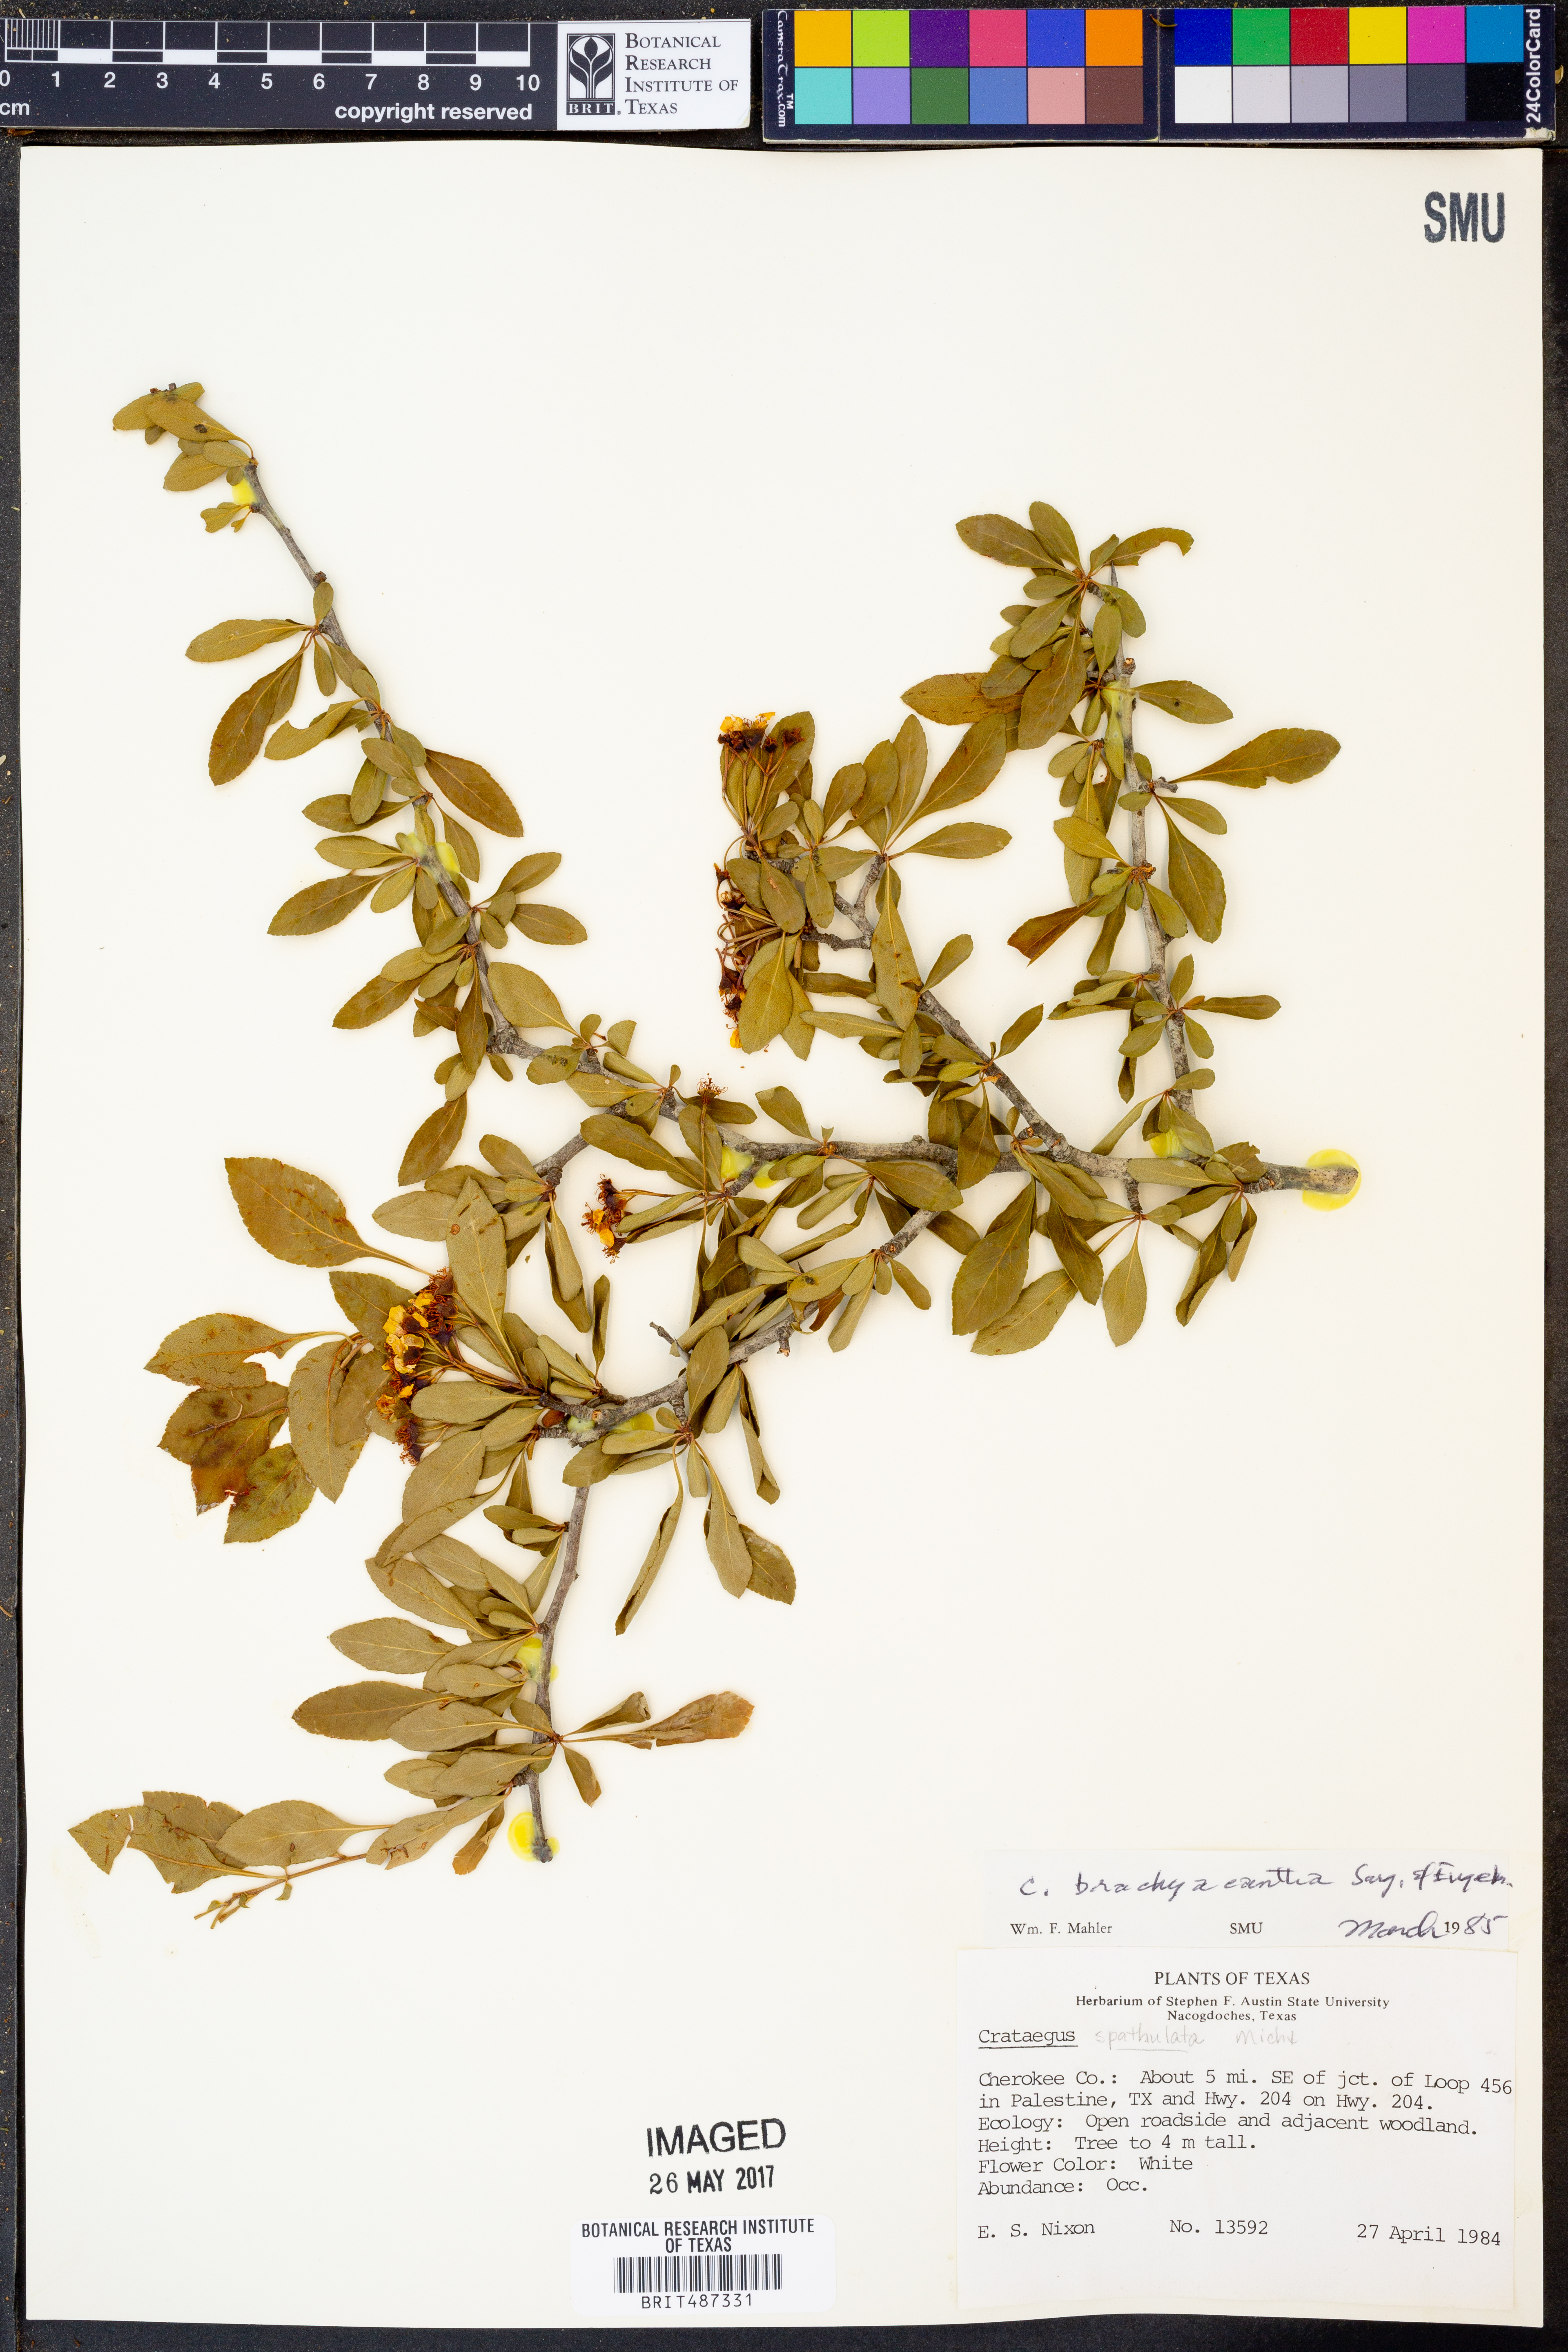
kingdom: Plantae
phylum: Tracheophyta
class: Magnoliopsida
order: Rosales
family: Rosaceae
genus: Crataegus
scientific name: Crataegus brachyacantha
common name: Blueberry-hawthorn
